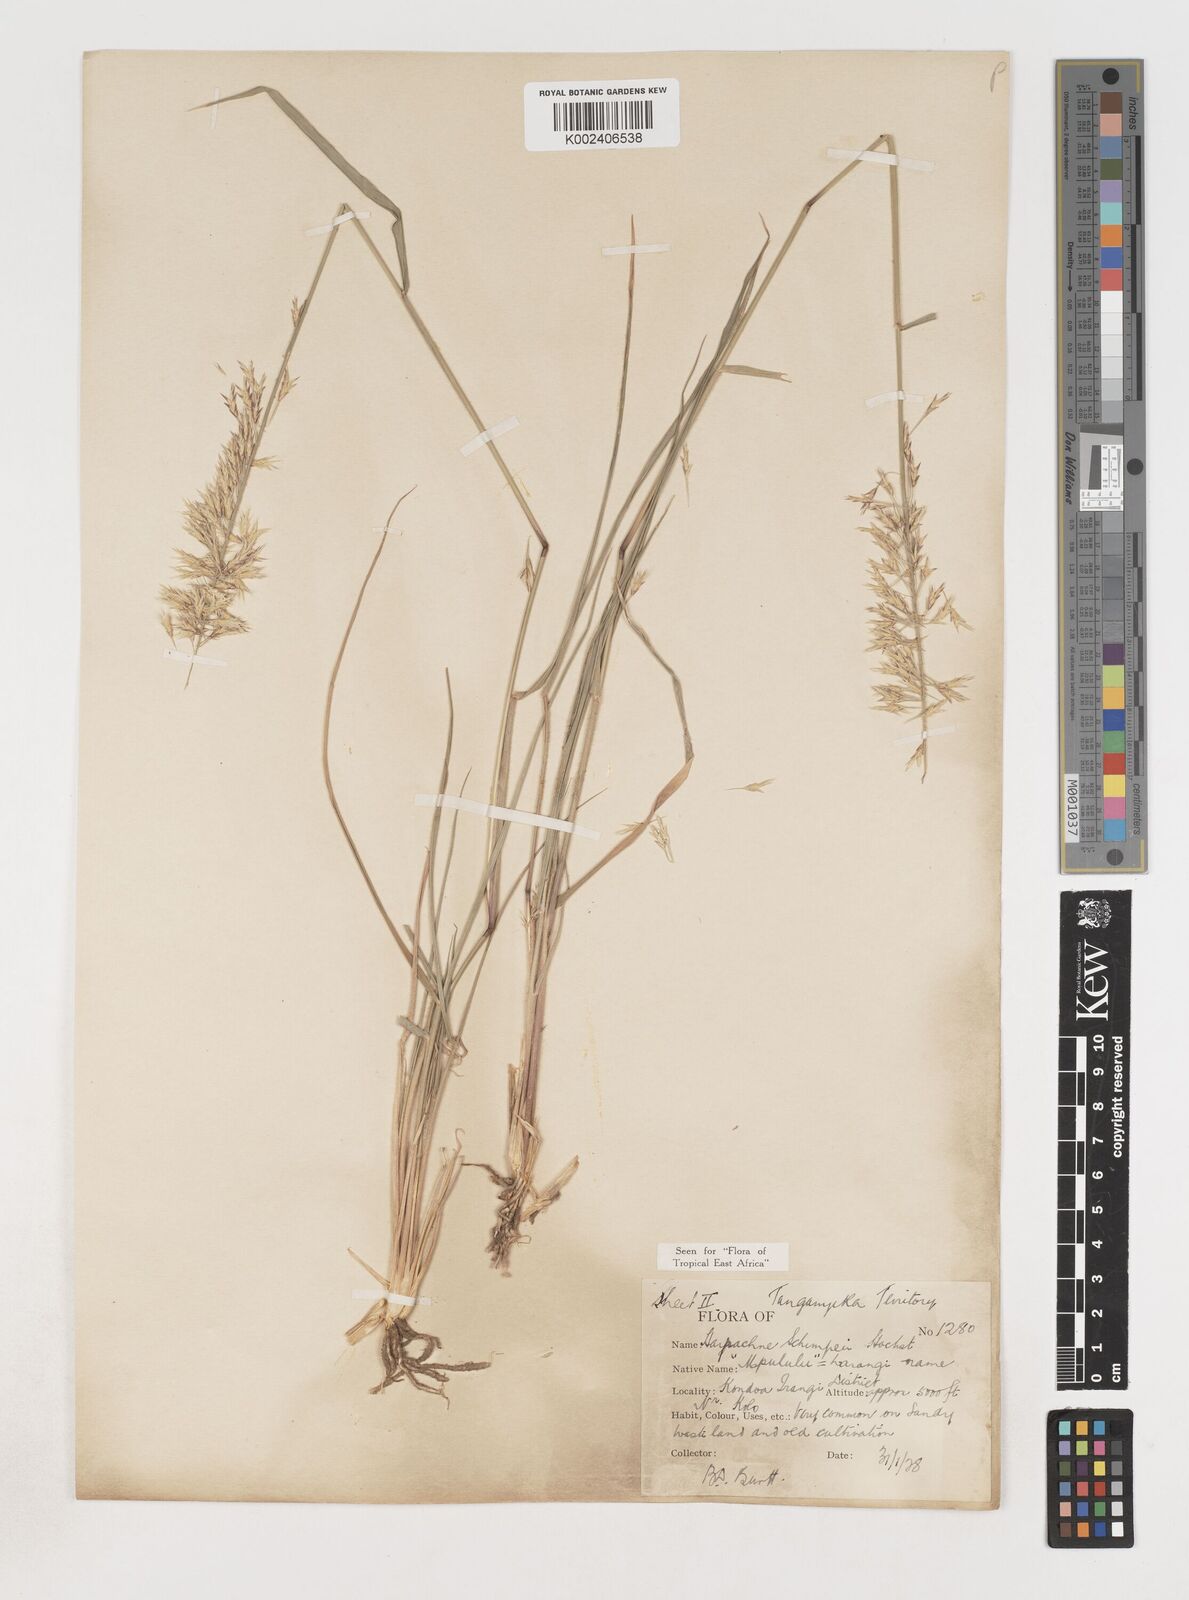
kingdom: Plantae
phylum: Tracheophyta
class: Liliopsida
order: Poales
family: Poaceae
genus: Harpachne
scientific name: Harpachne schimperi
